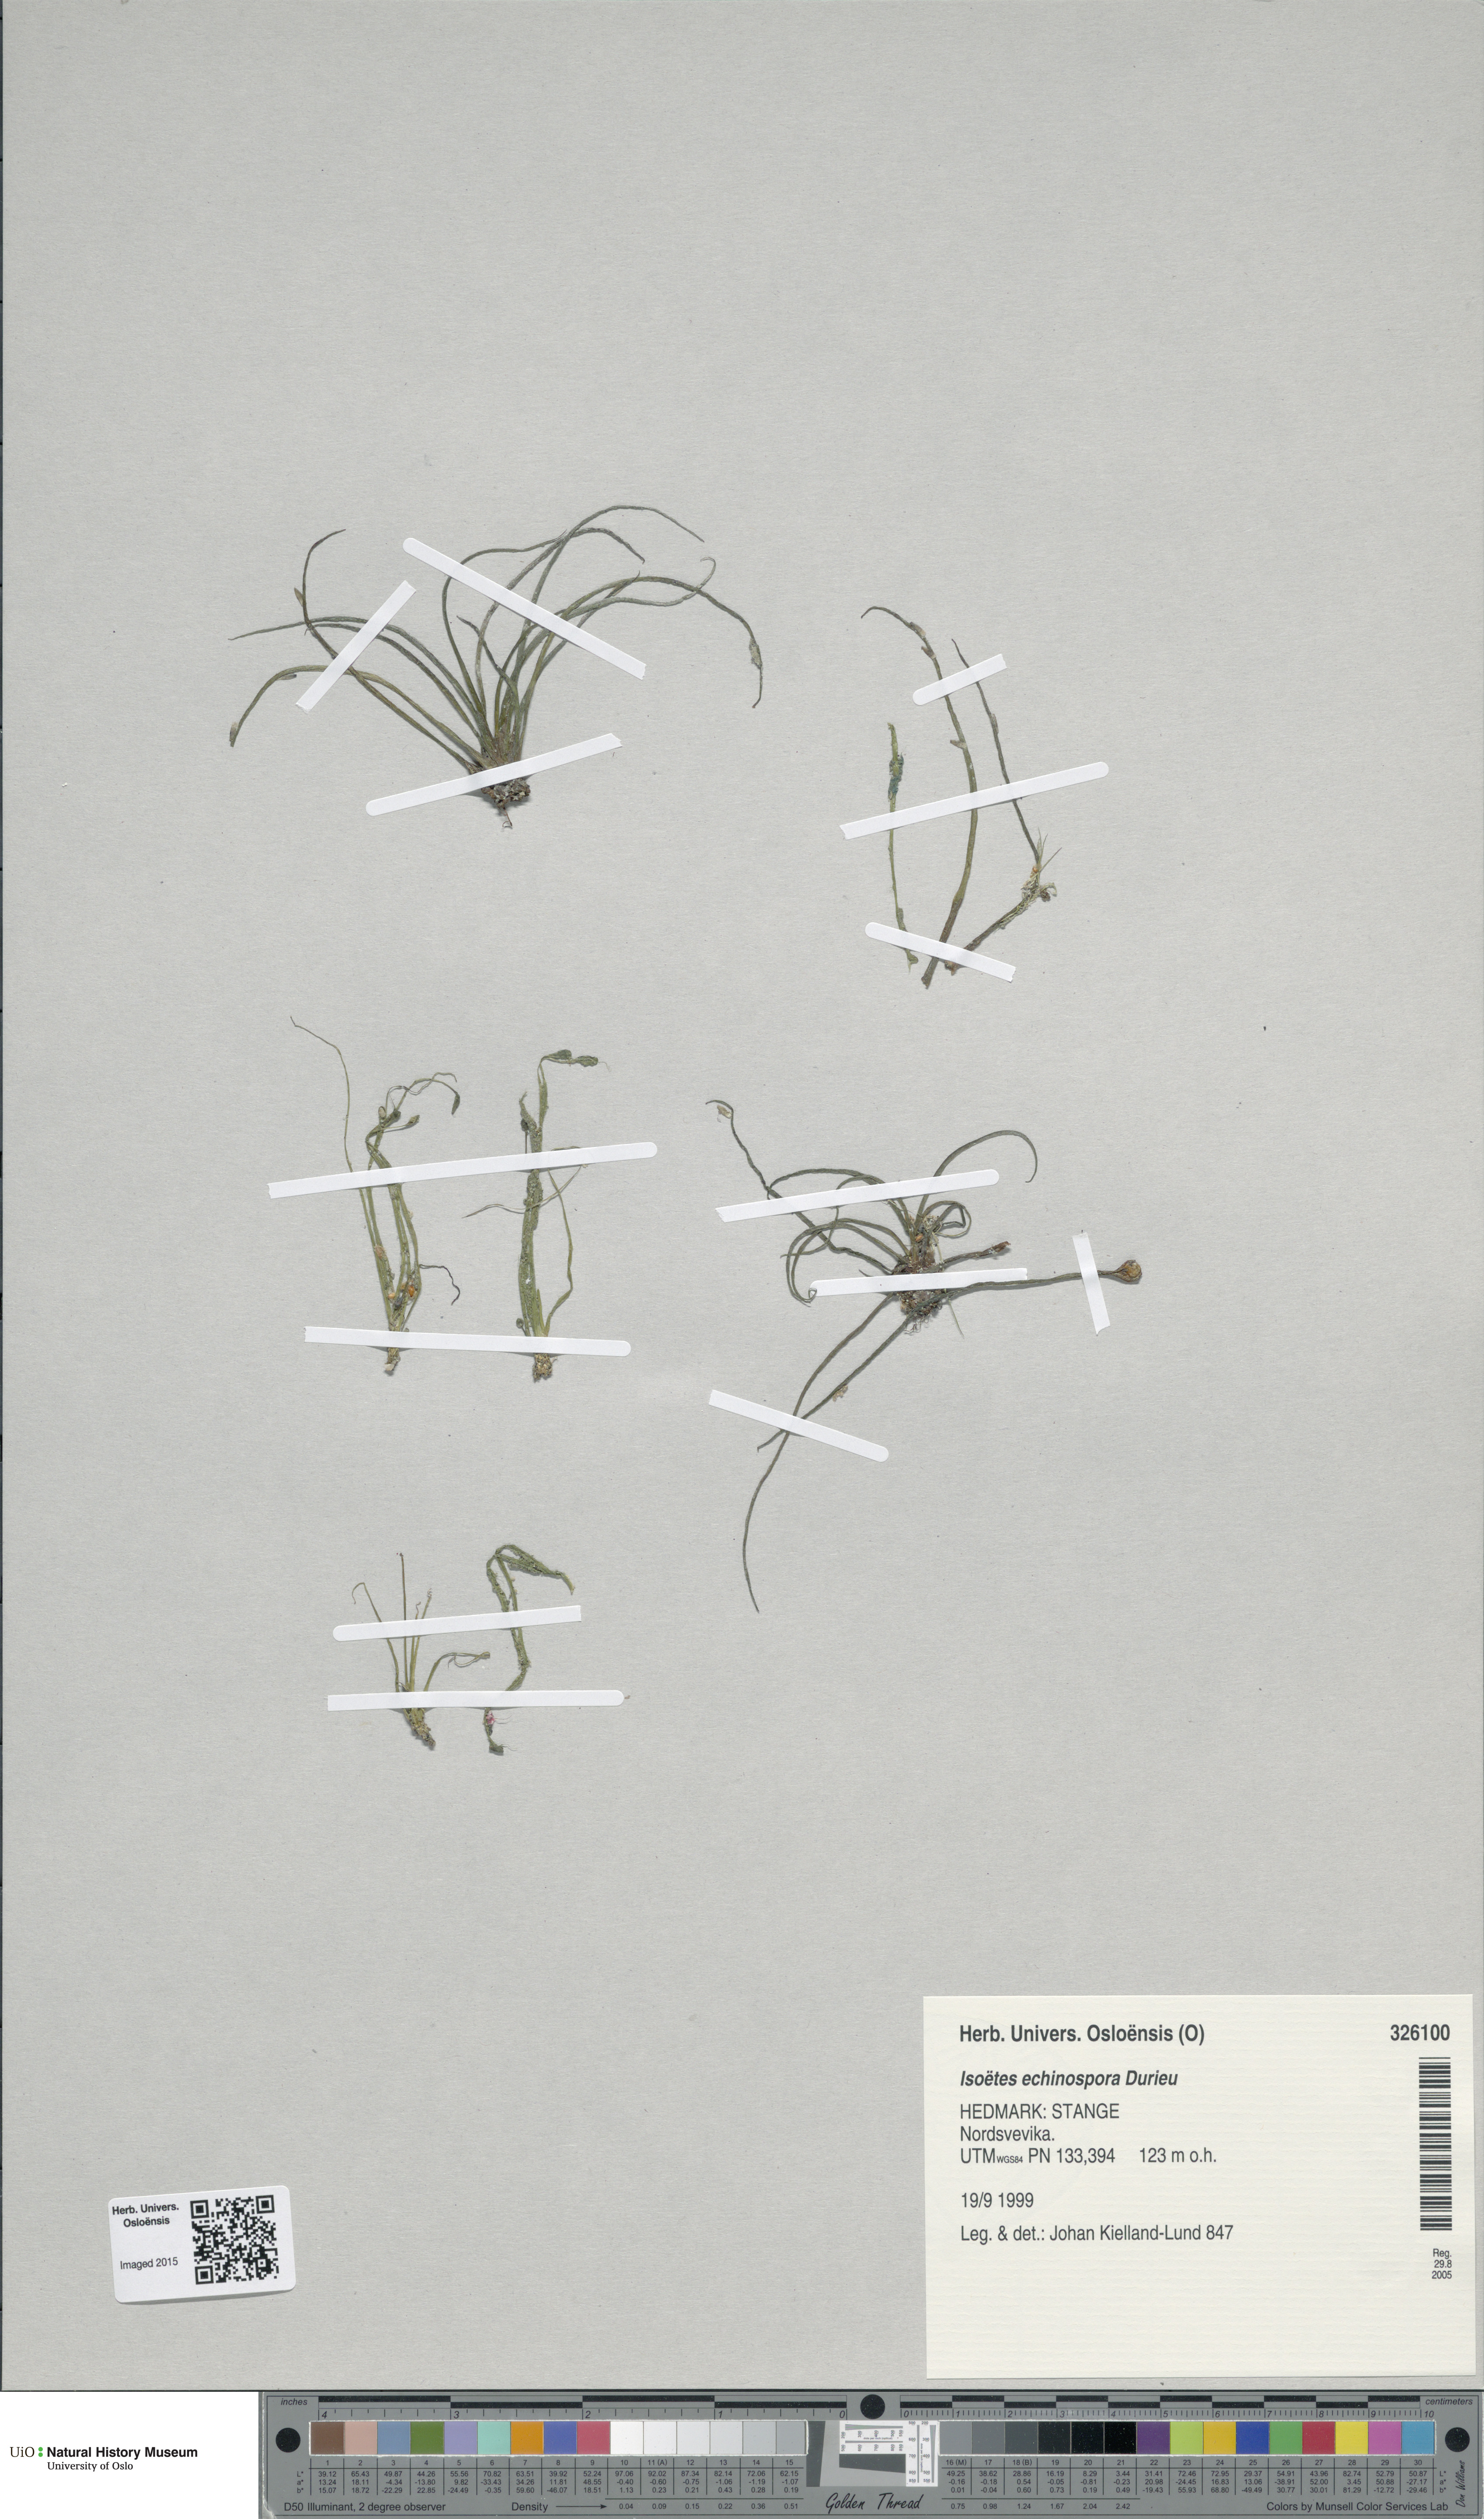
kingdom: Plantae
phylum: Tracheophyta
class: Lycopodiopsida
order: Isoetales
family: Isoetaceae
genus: Isoetes
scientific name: Isoetes echinospora
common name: Spring quillwort
